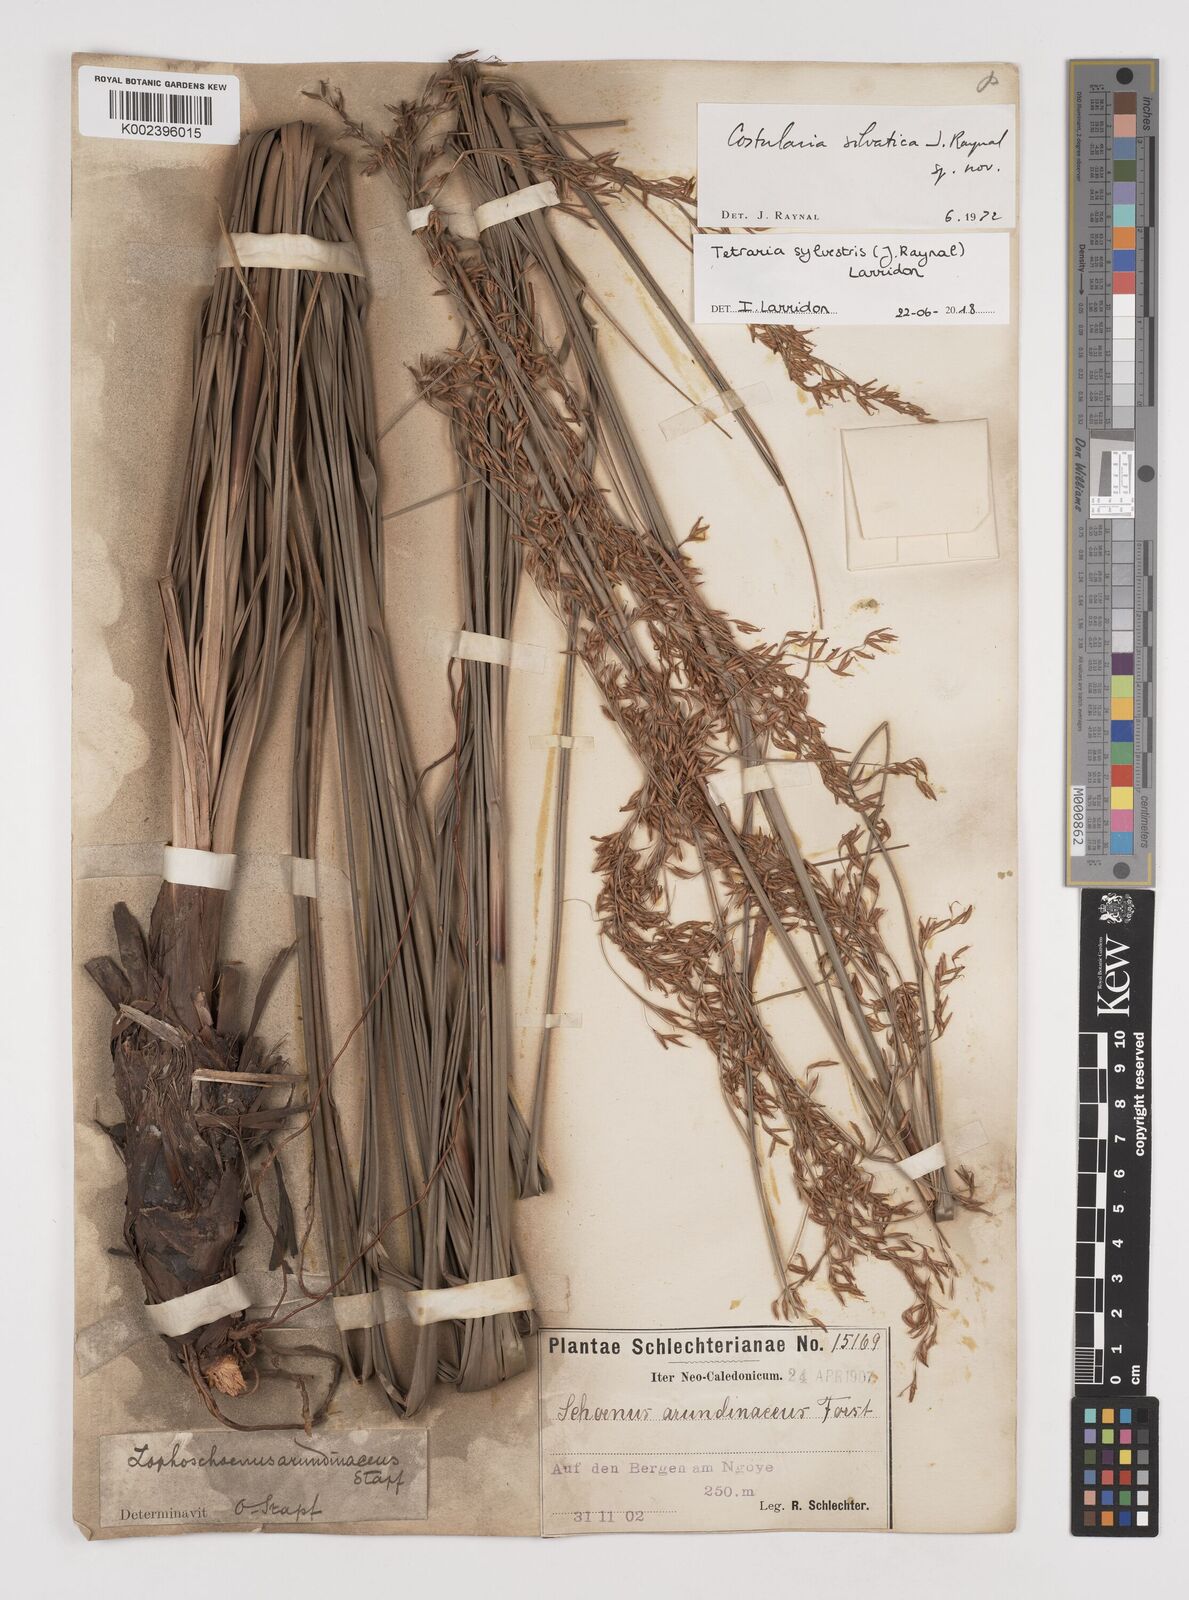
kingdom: Plantae
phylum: Tracheophyta
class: Liliopsida
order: Poales
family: Cyperaceae
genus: Tetraria
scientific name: Tetraria sylvestris
